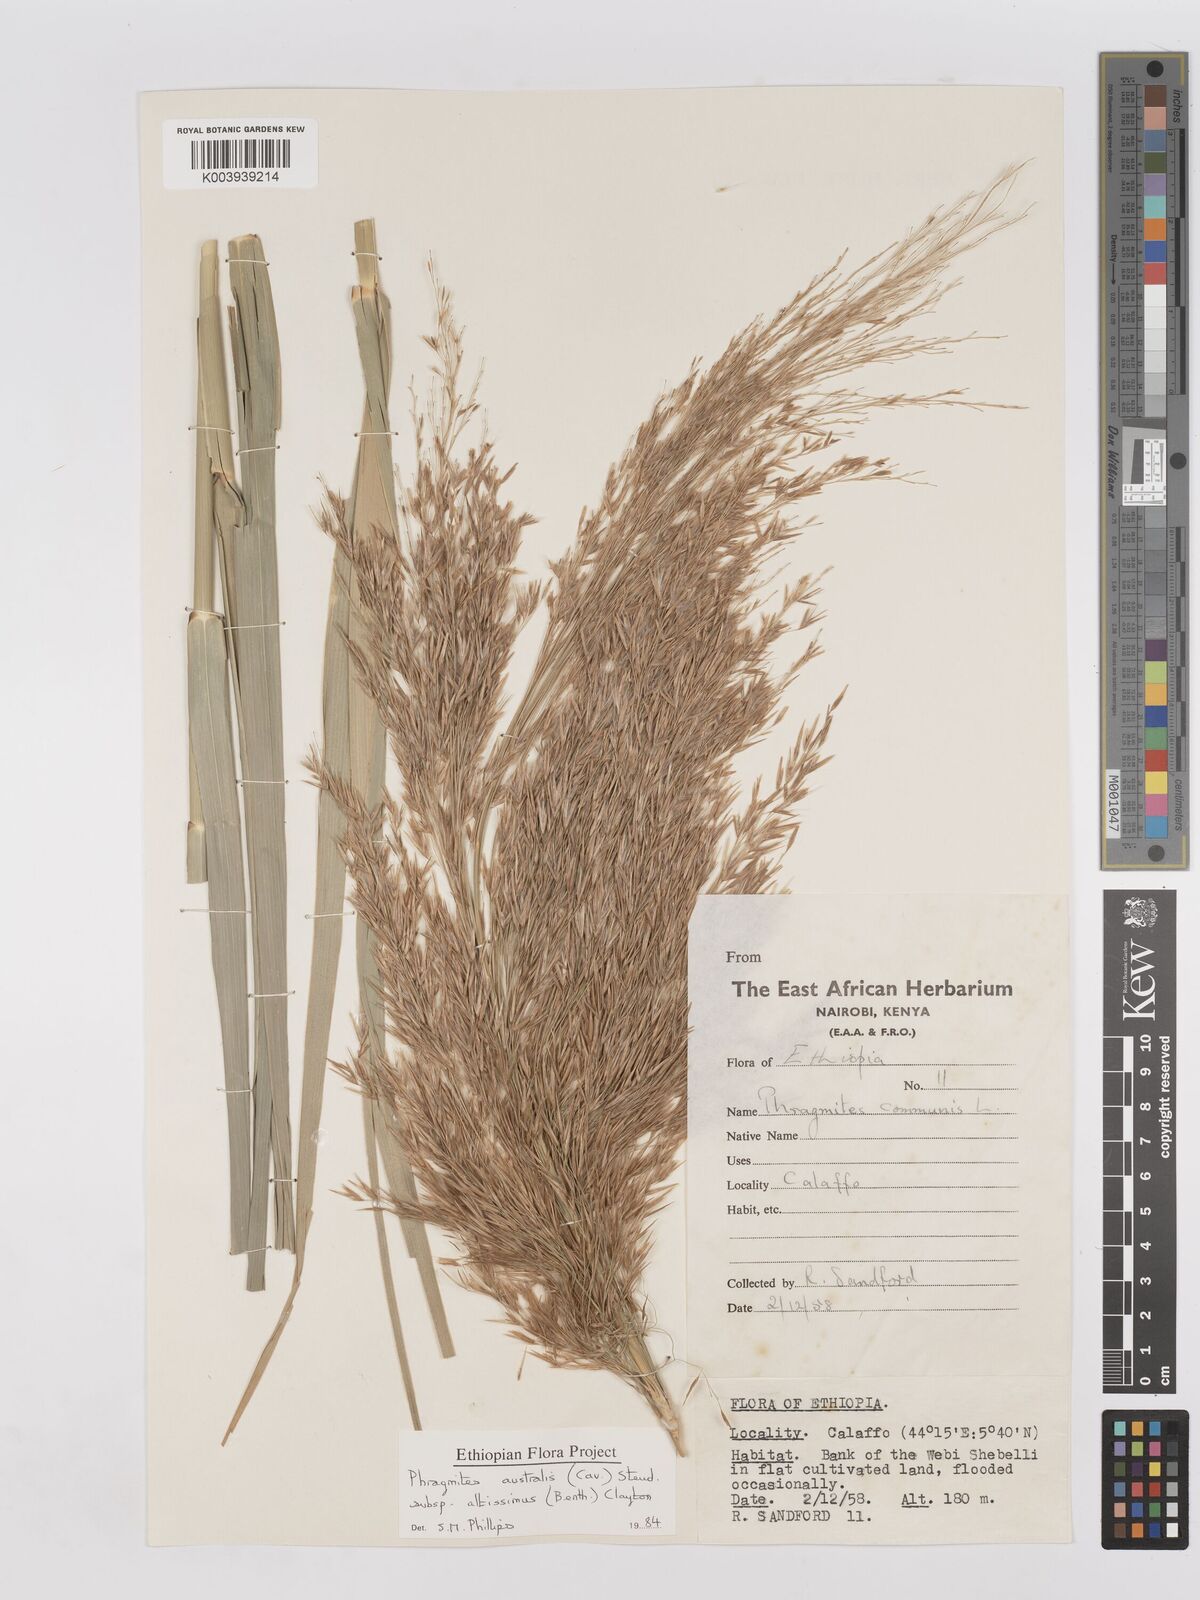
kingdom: Plantae
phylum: Tracheophyta
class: Liliopsida
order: Poales
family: Poaceae
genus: Phragmites
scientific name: Phragmites australis
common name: Common reed
